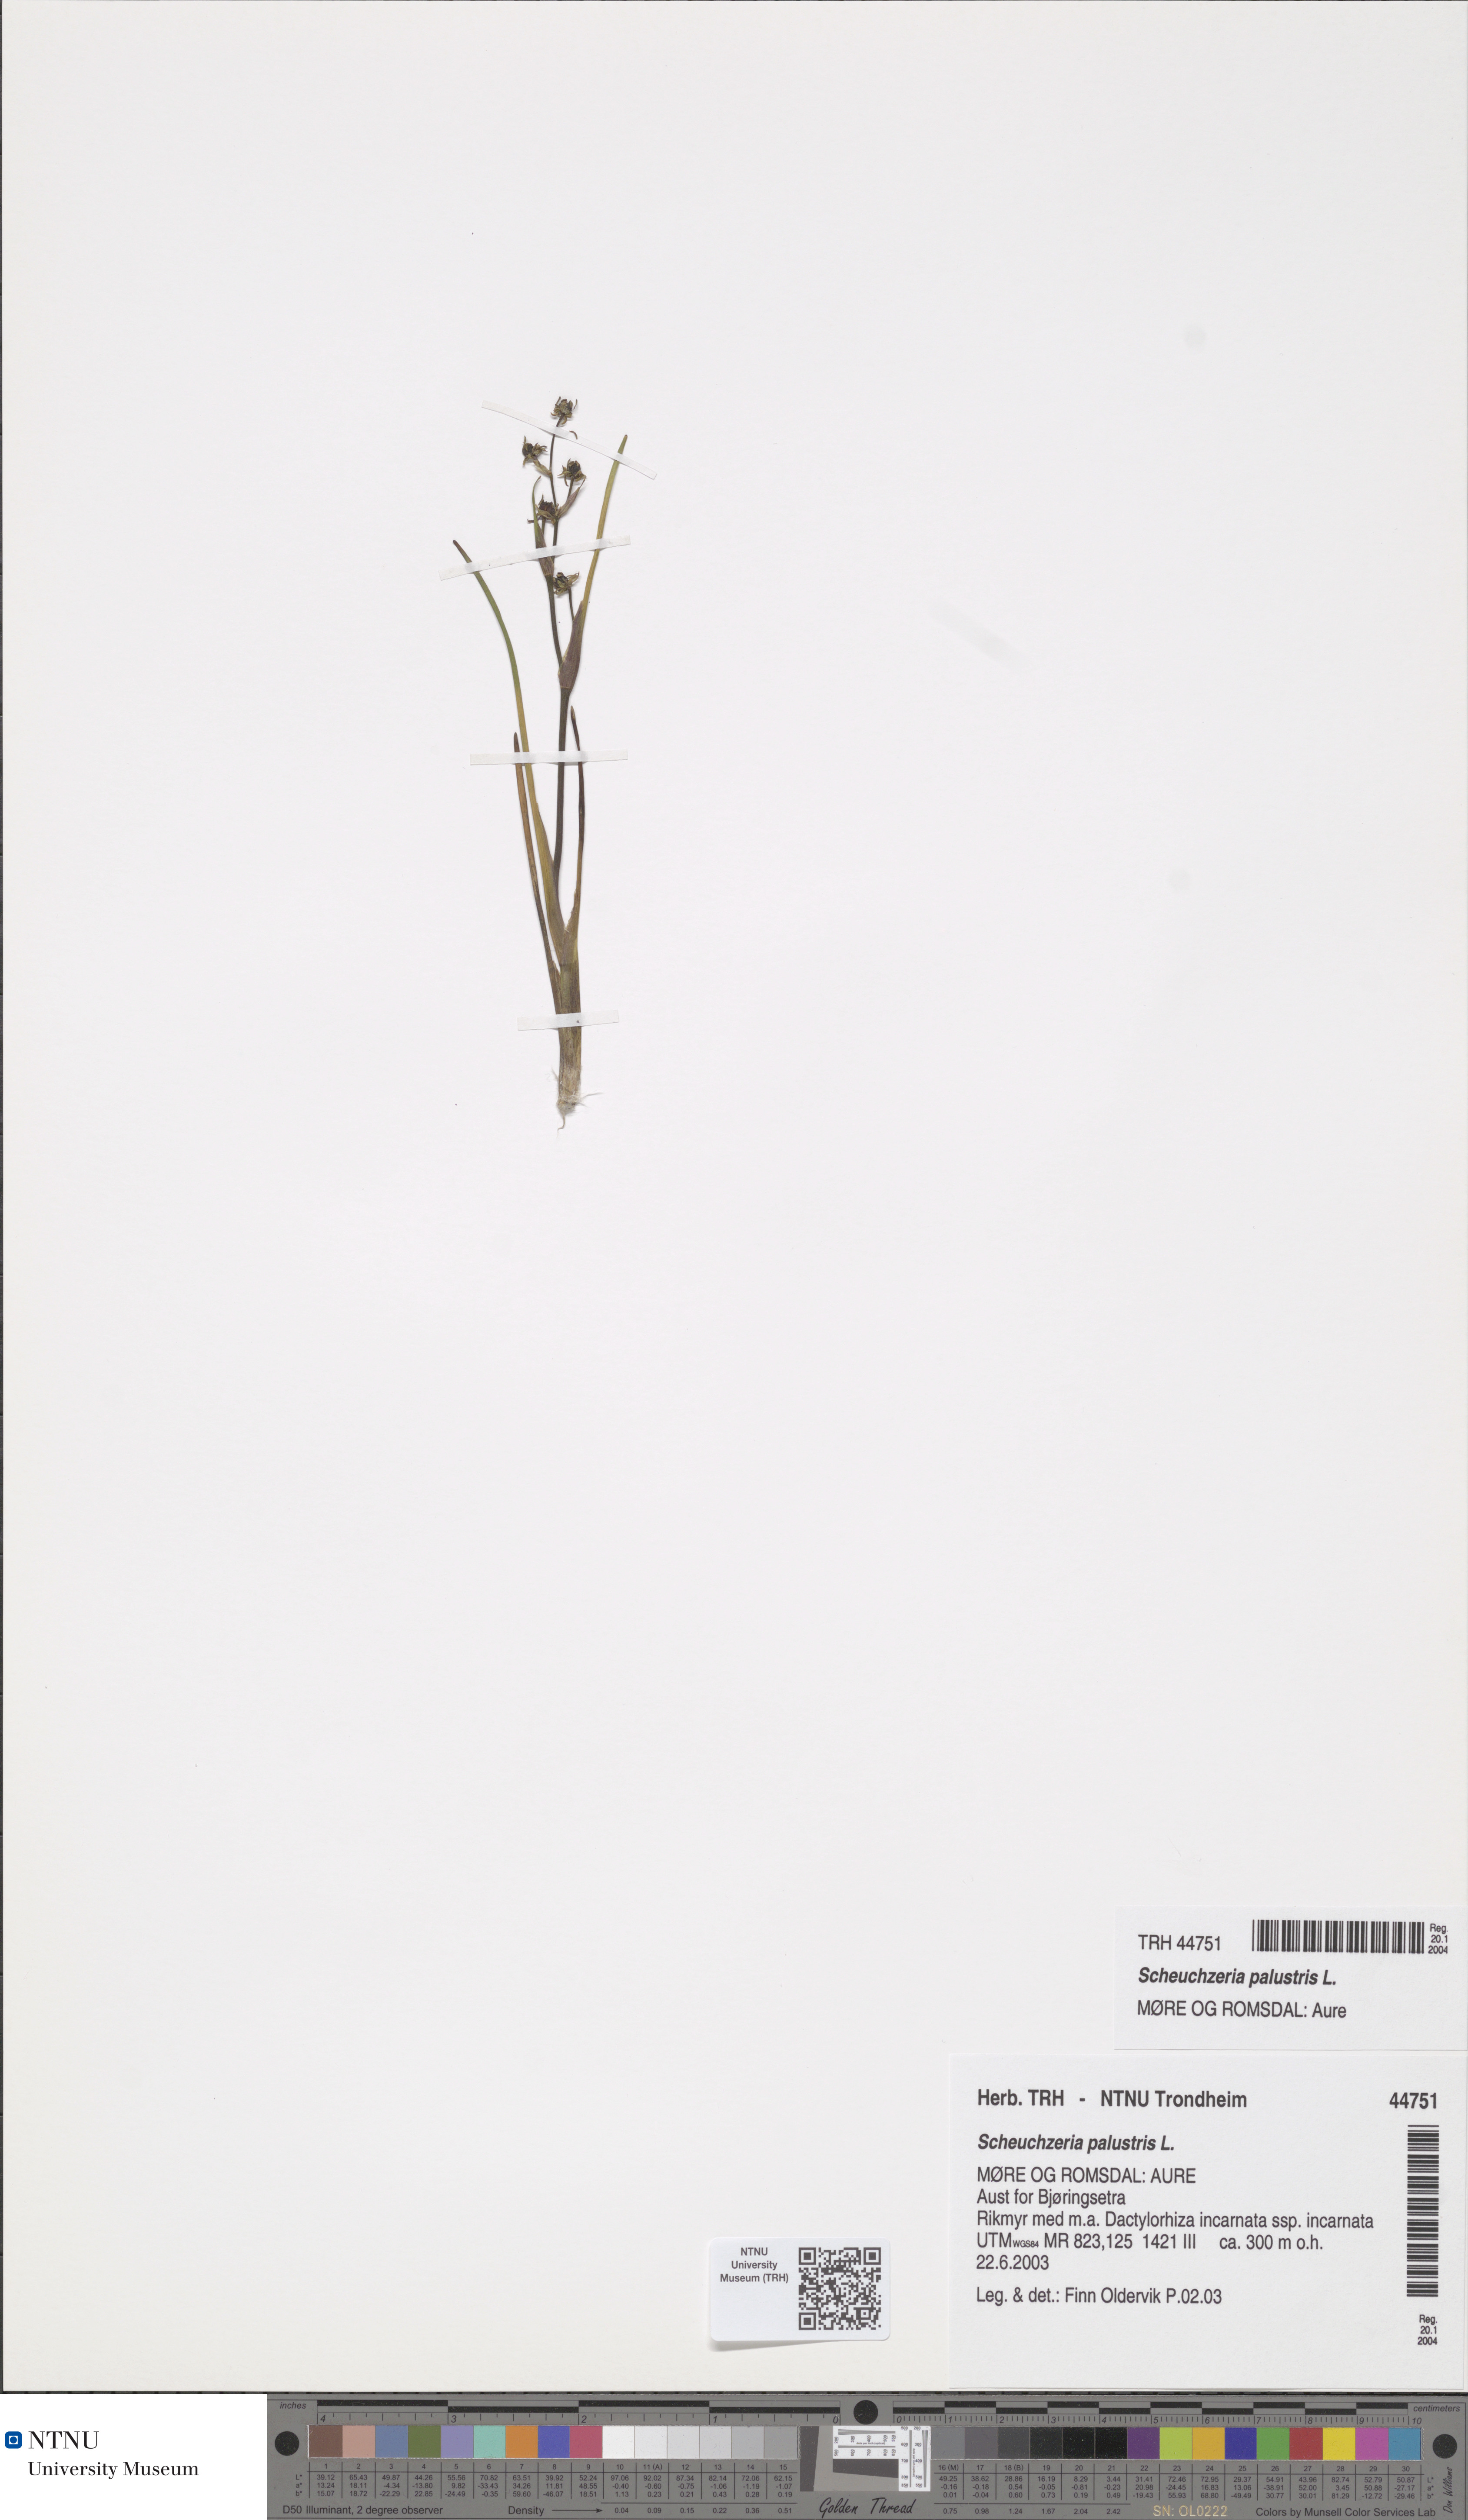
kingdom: Plantae
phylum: Tracheophyta
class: Liliopsida
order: Alismatales
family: Scheuchzeriaceae
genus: Scheuchzeria
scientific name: Scheuchzeria palustris
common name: Rannoch-rush
